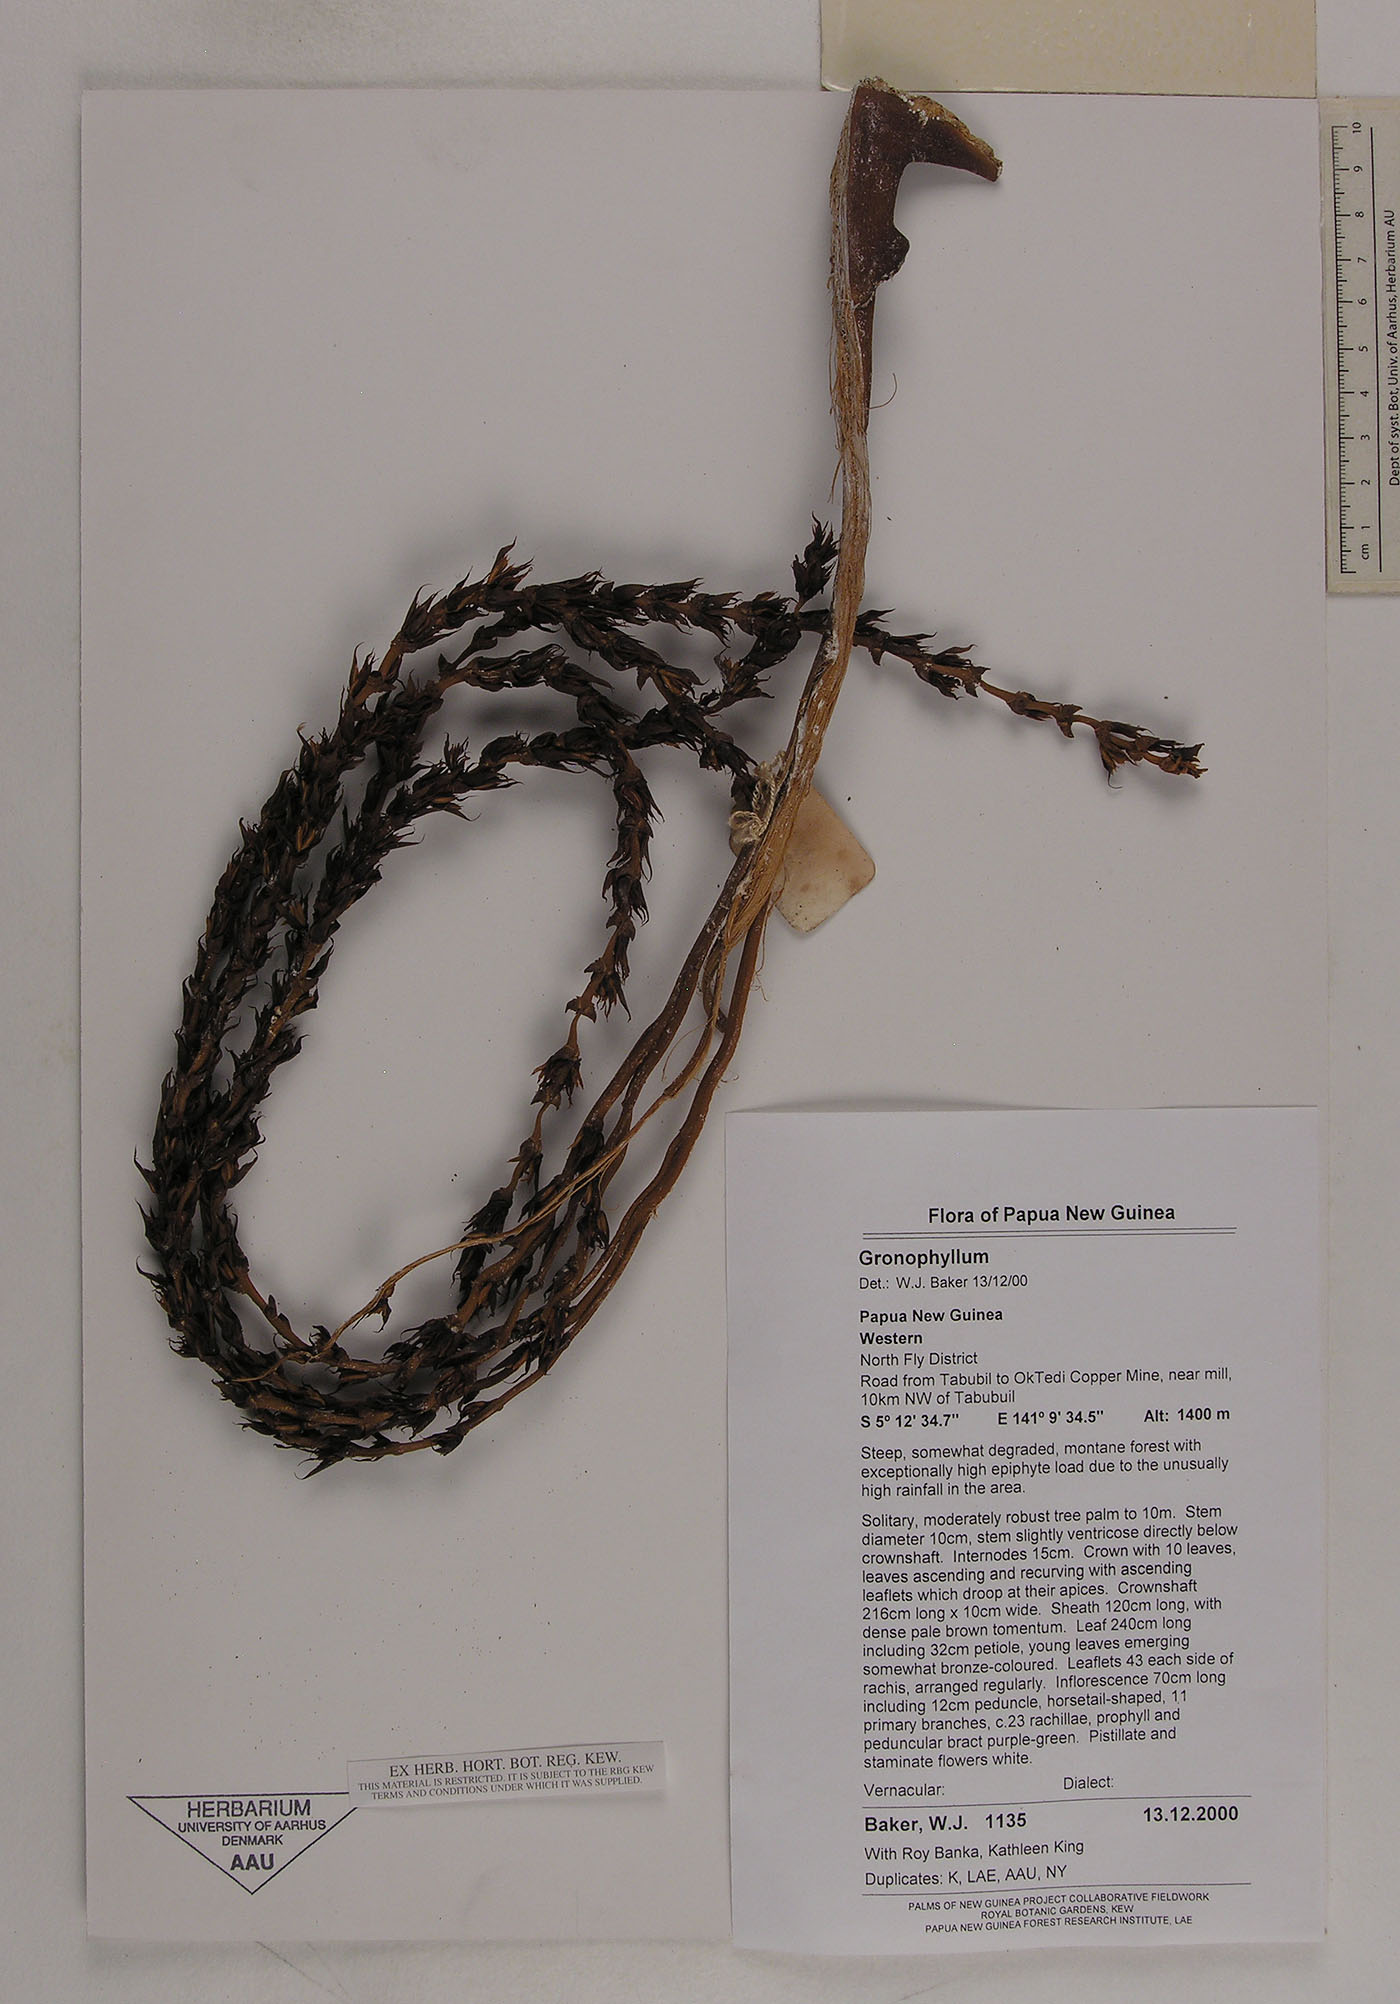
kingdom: Plantae
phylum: Tracheophyta
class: Liliopsida
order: Arecales
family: Arecaceae
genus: Hydriastele
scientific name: Hydriastele
